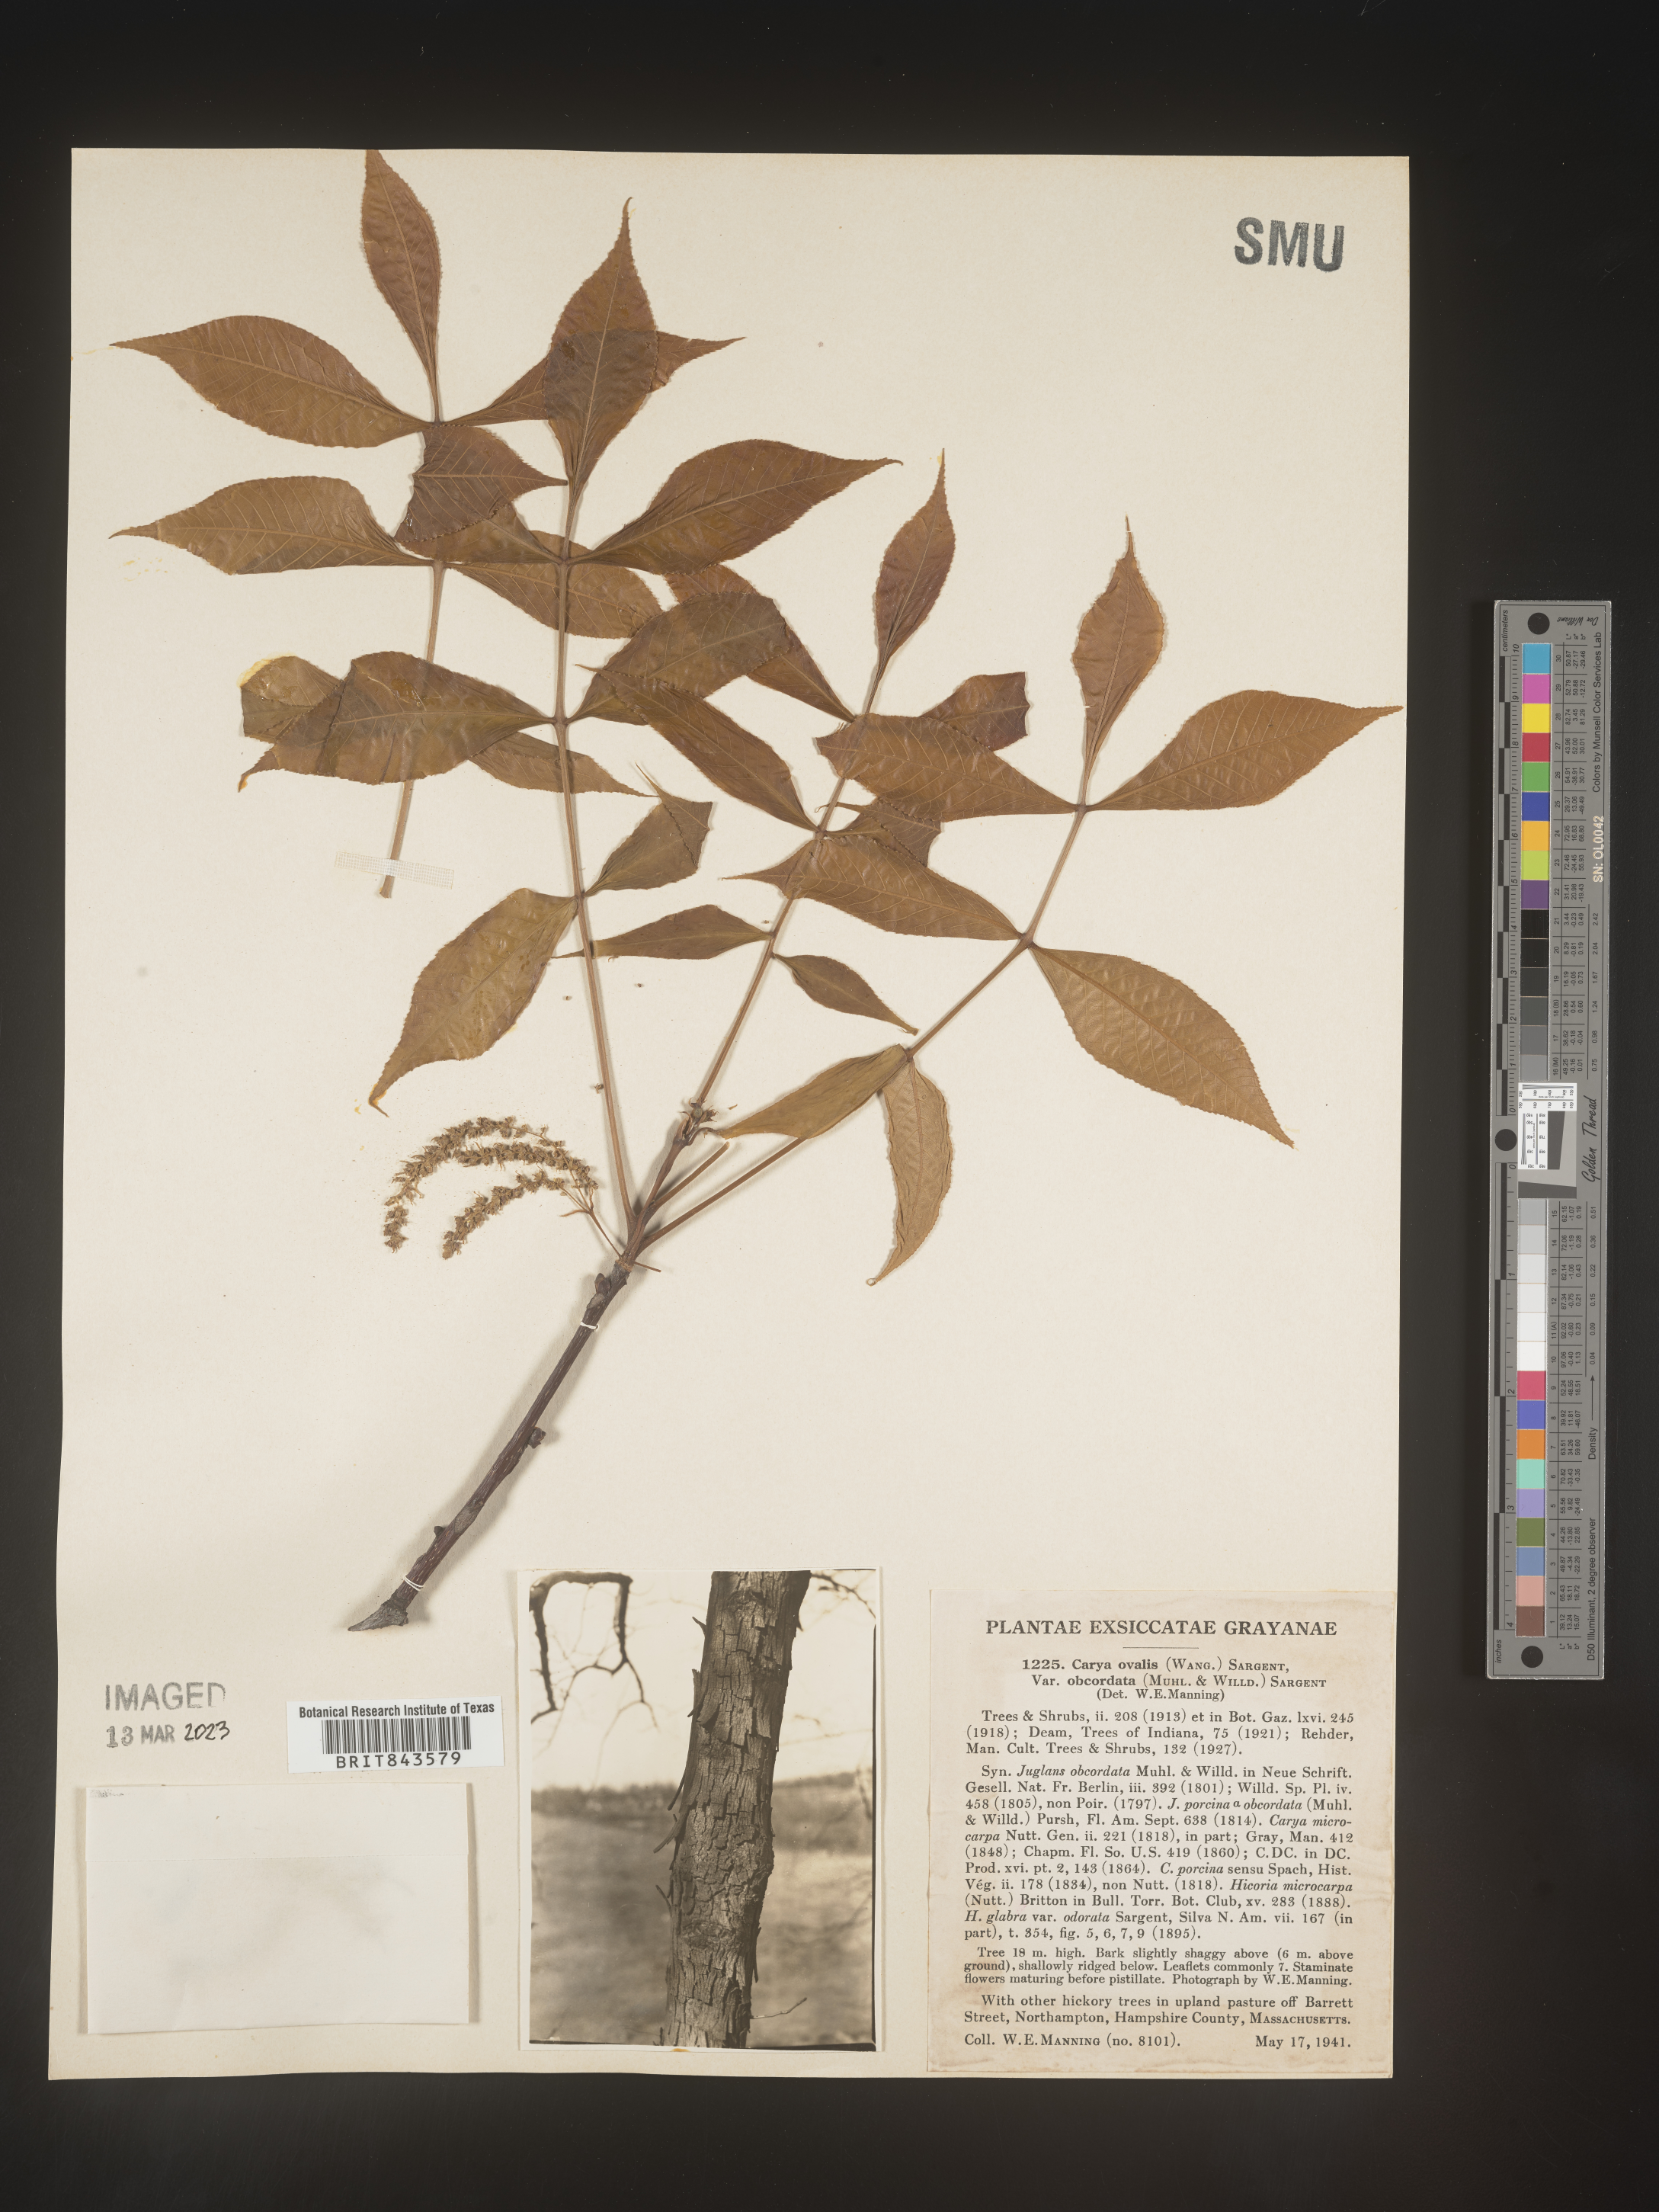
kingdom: Plantae
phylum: Tracheophyta
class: Magnoliopsida
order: Fagales
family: Juglandaceae
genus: Carya
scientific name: Carya ovalis
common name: False shagbark
